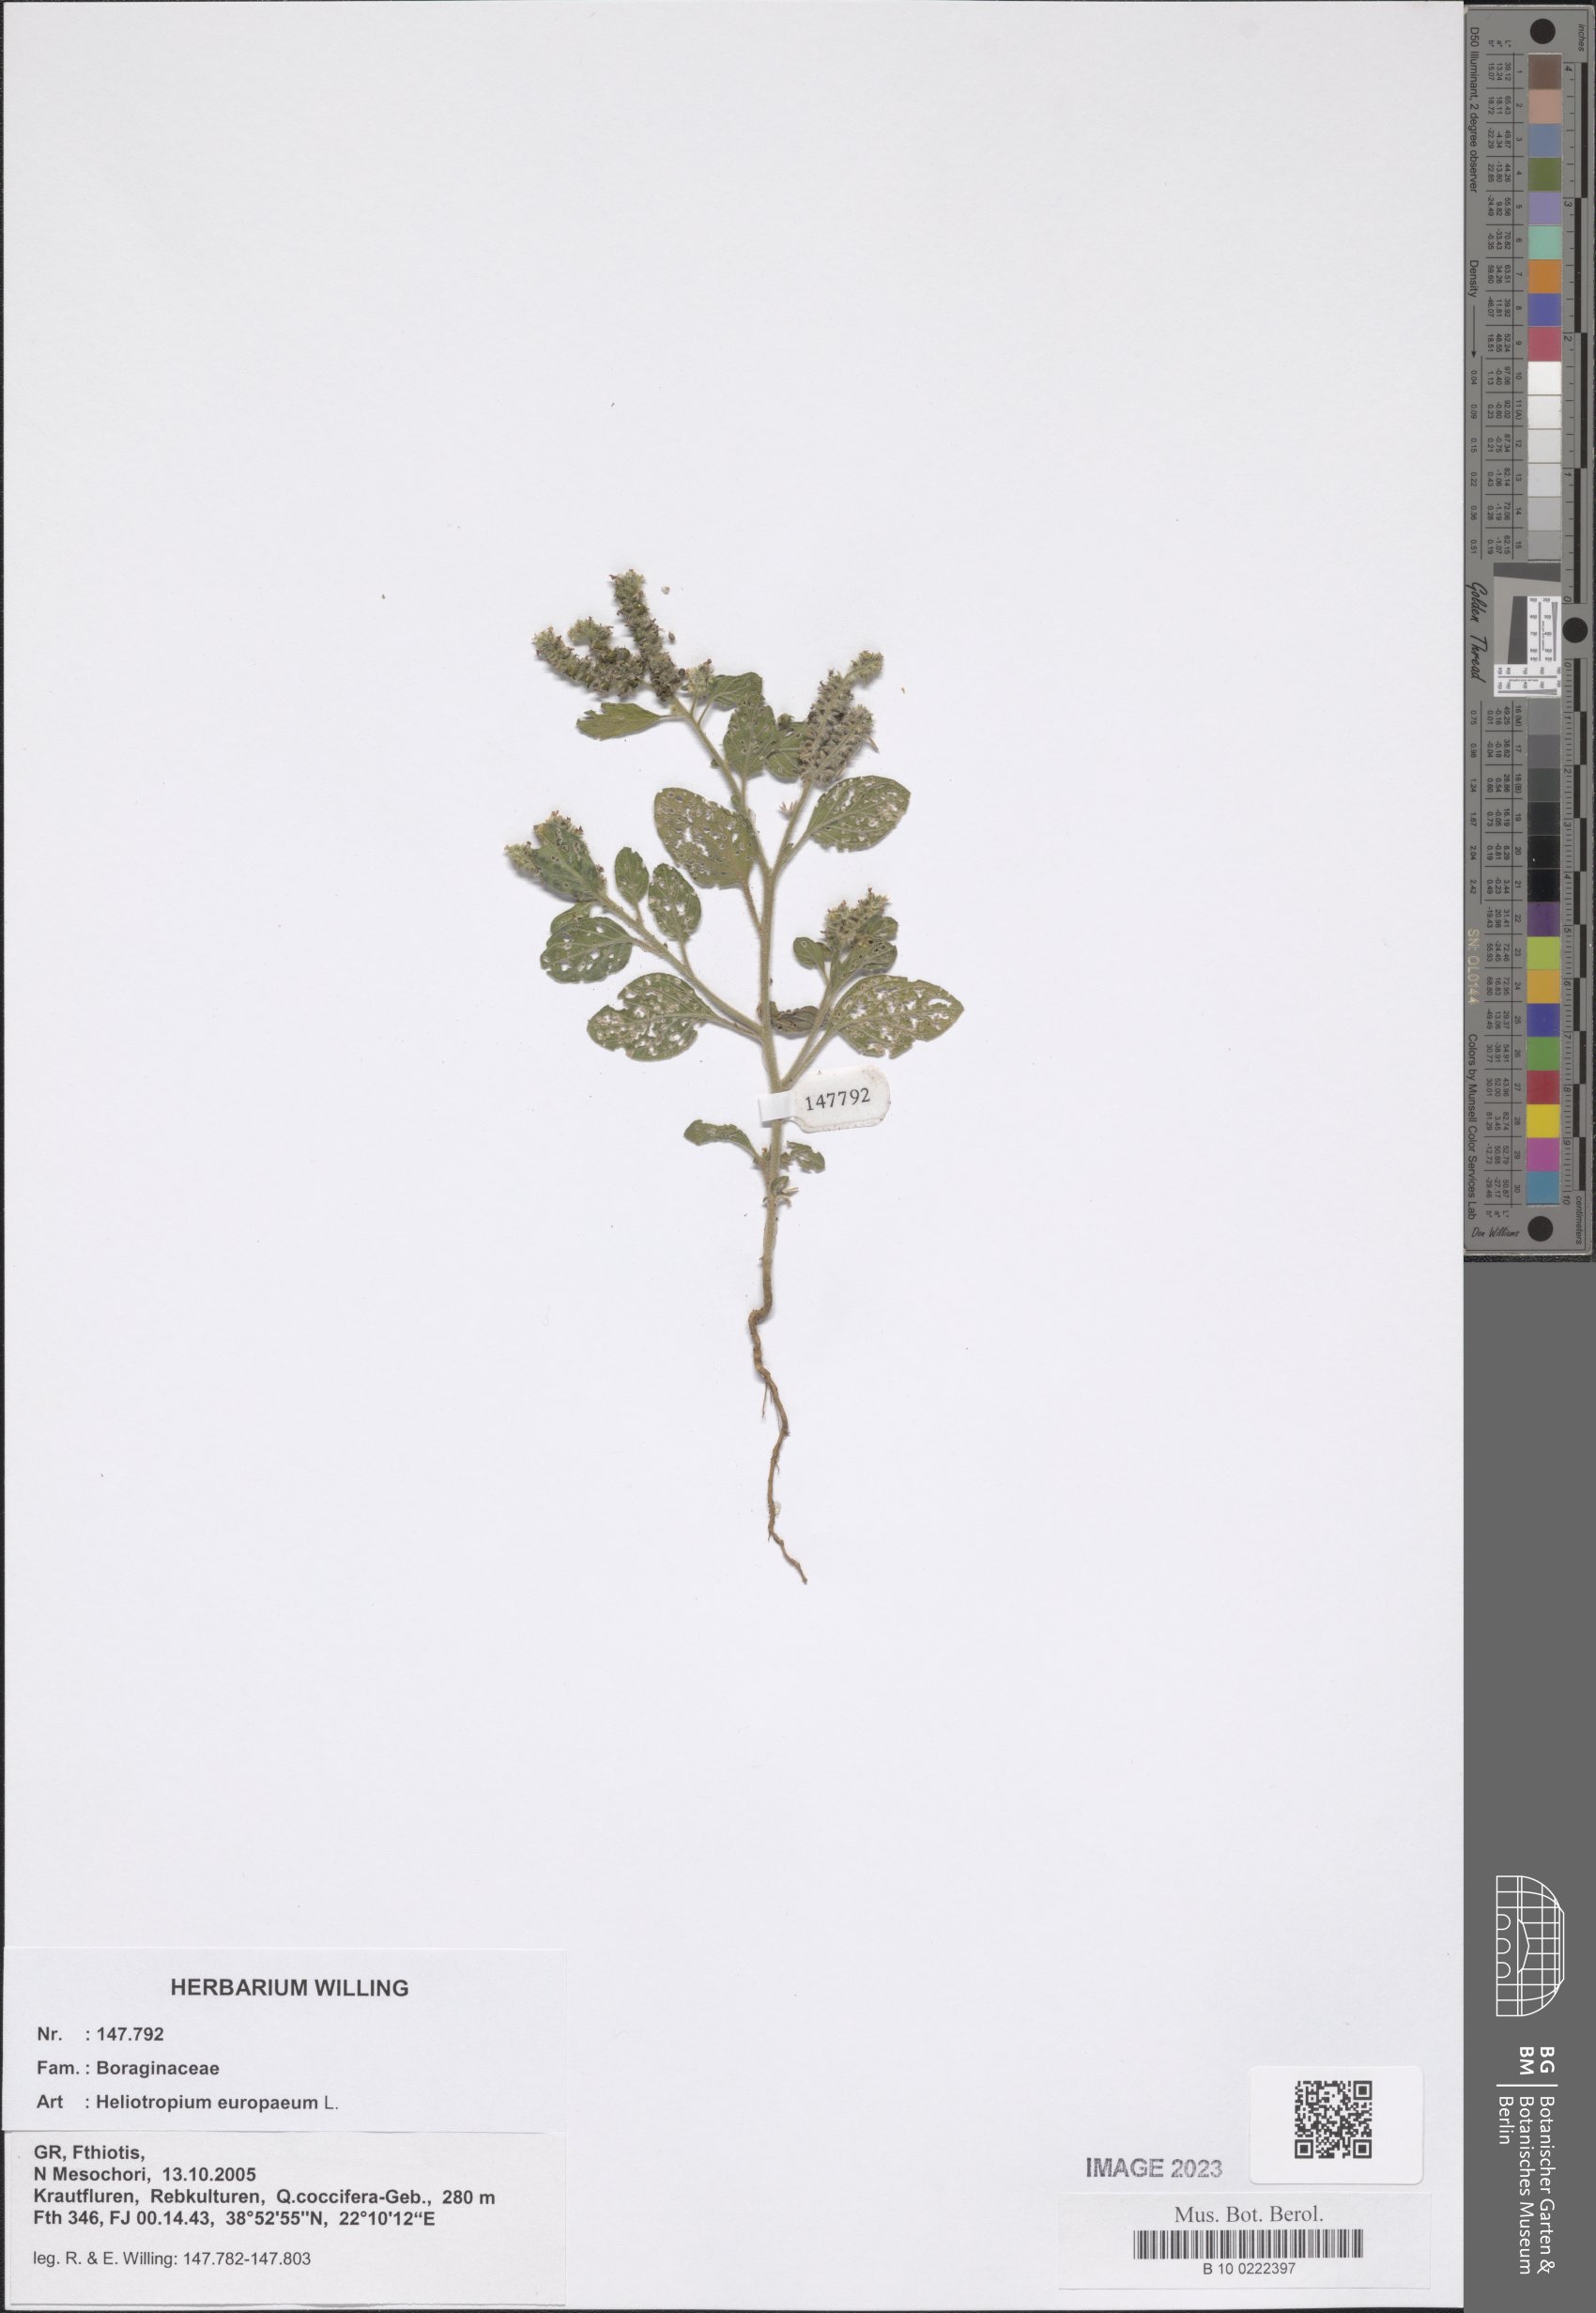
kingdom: Plantae
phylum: Tracheophyta
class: Magnoliopsida
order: Boraginales
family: Heliotropiaceae
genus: Heliotropium
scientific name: Heliotropium europaeum
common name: European heliotrope
